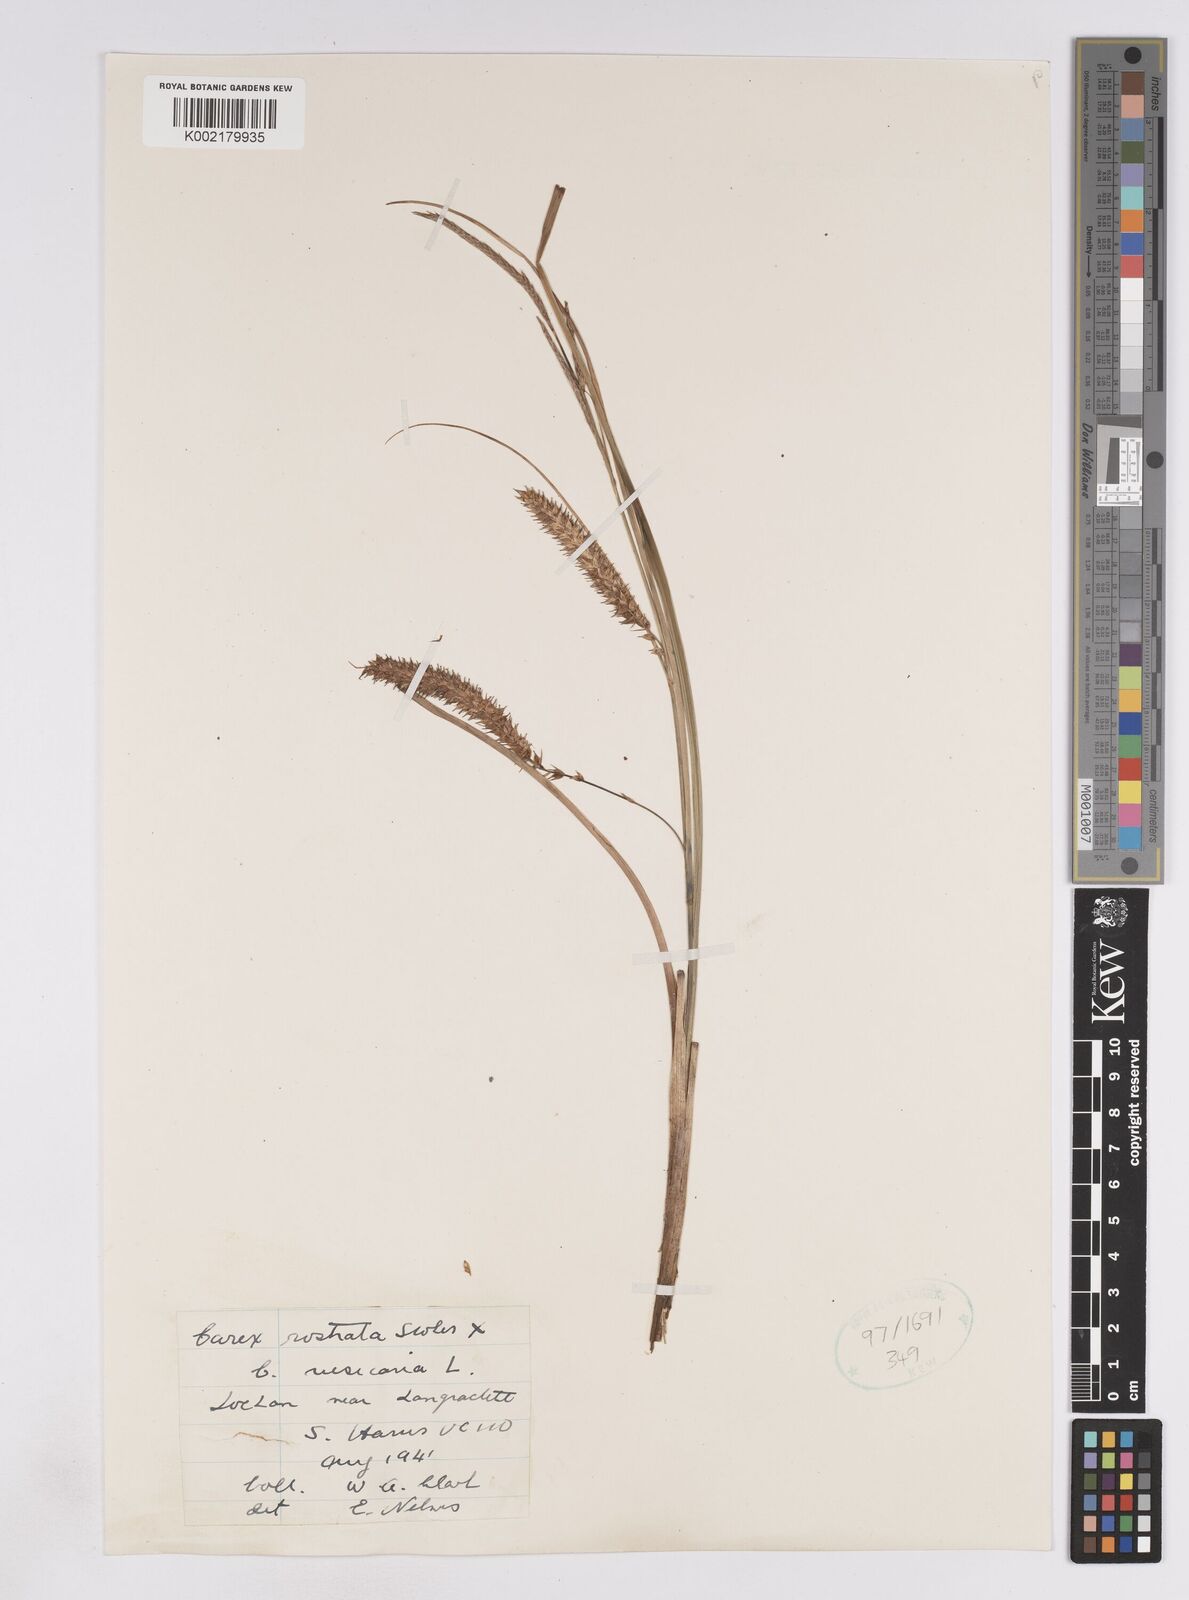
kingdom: Plantae
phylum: Tracheophyta
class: Liliopsida
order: Poales
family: Cyperaceae
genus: Carex
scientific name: Carex rostrata
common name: Bottle sedge
